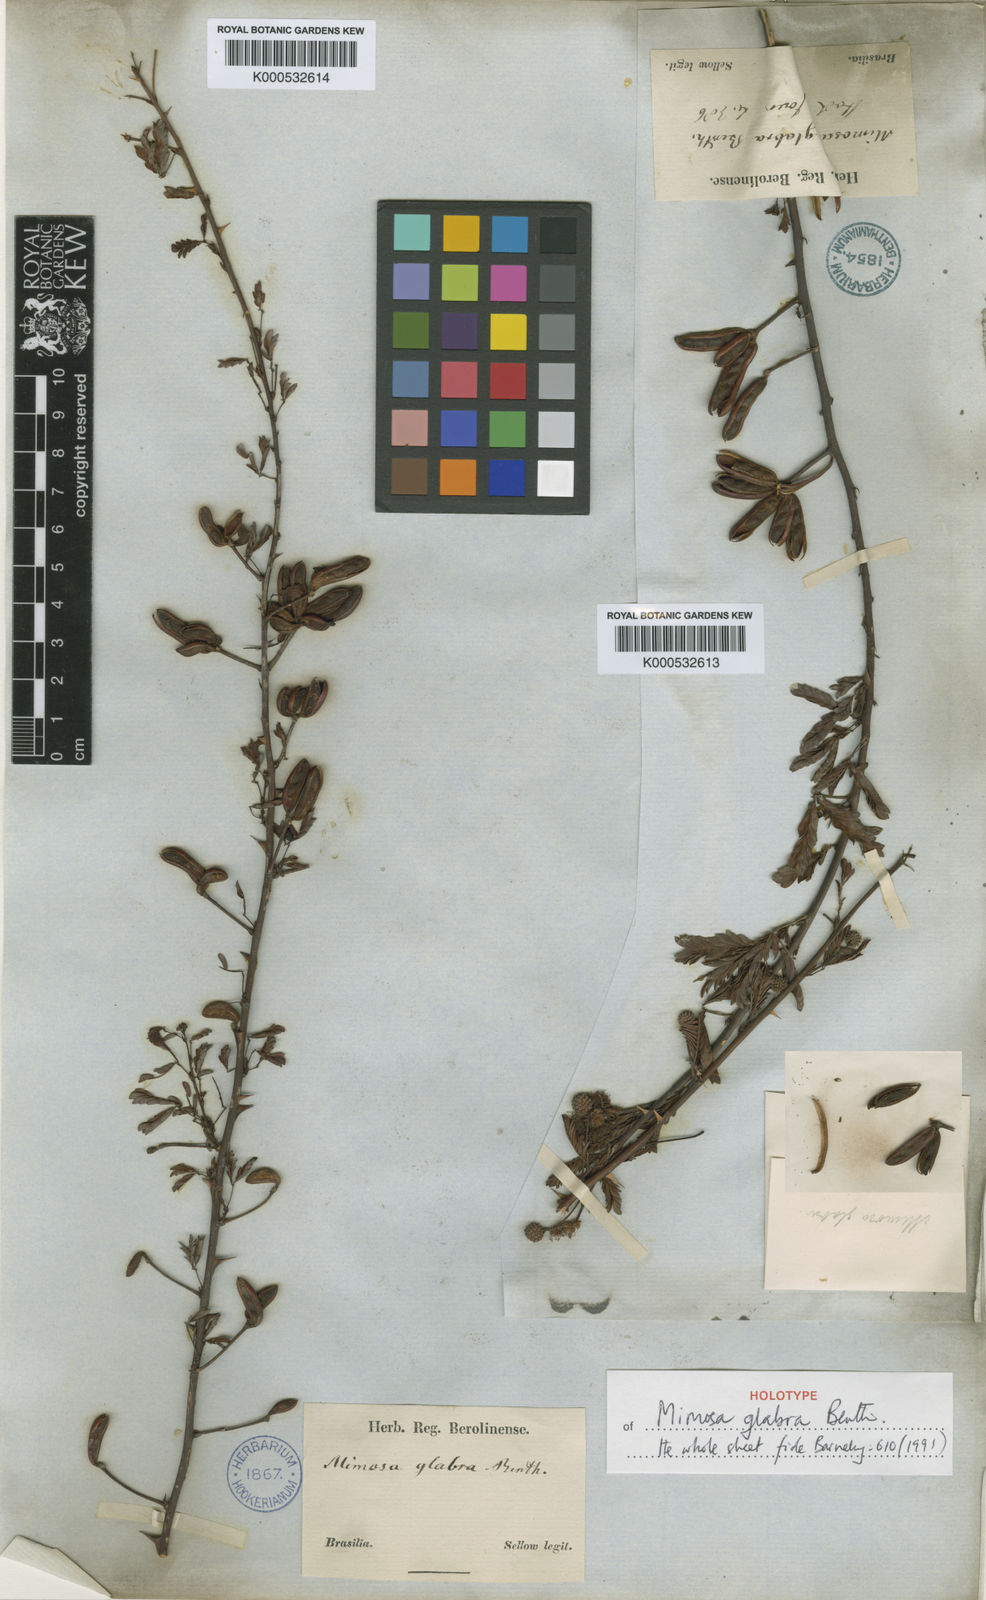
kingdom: Plantae
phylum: Tracheophyta
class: Magnoliopsida
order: Fabales
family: Fabaceae
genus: Mimosa
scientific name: Mimosa glabra
